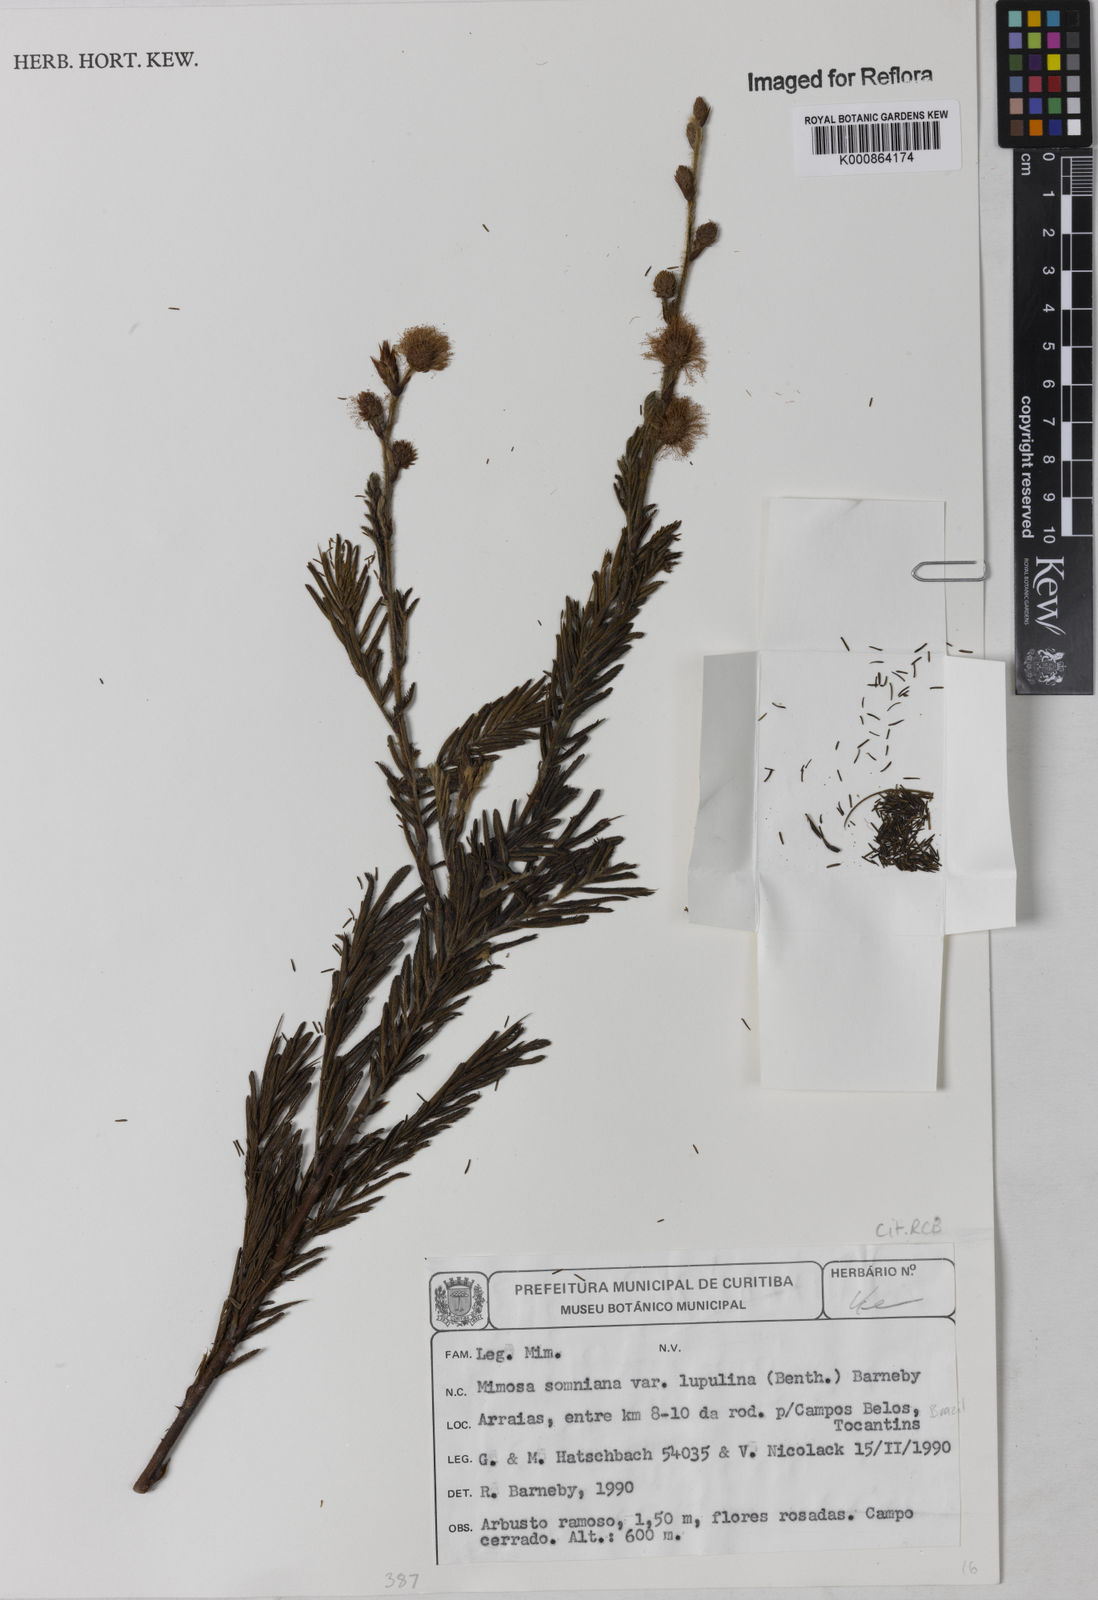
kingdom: Plantae
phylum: Tracheophyta
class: Magnoliopsida
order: Fabales
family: Fabaceae
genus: Mimosa
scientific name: Mimosa somnians
